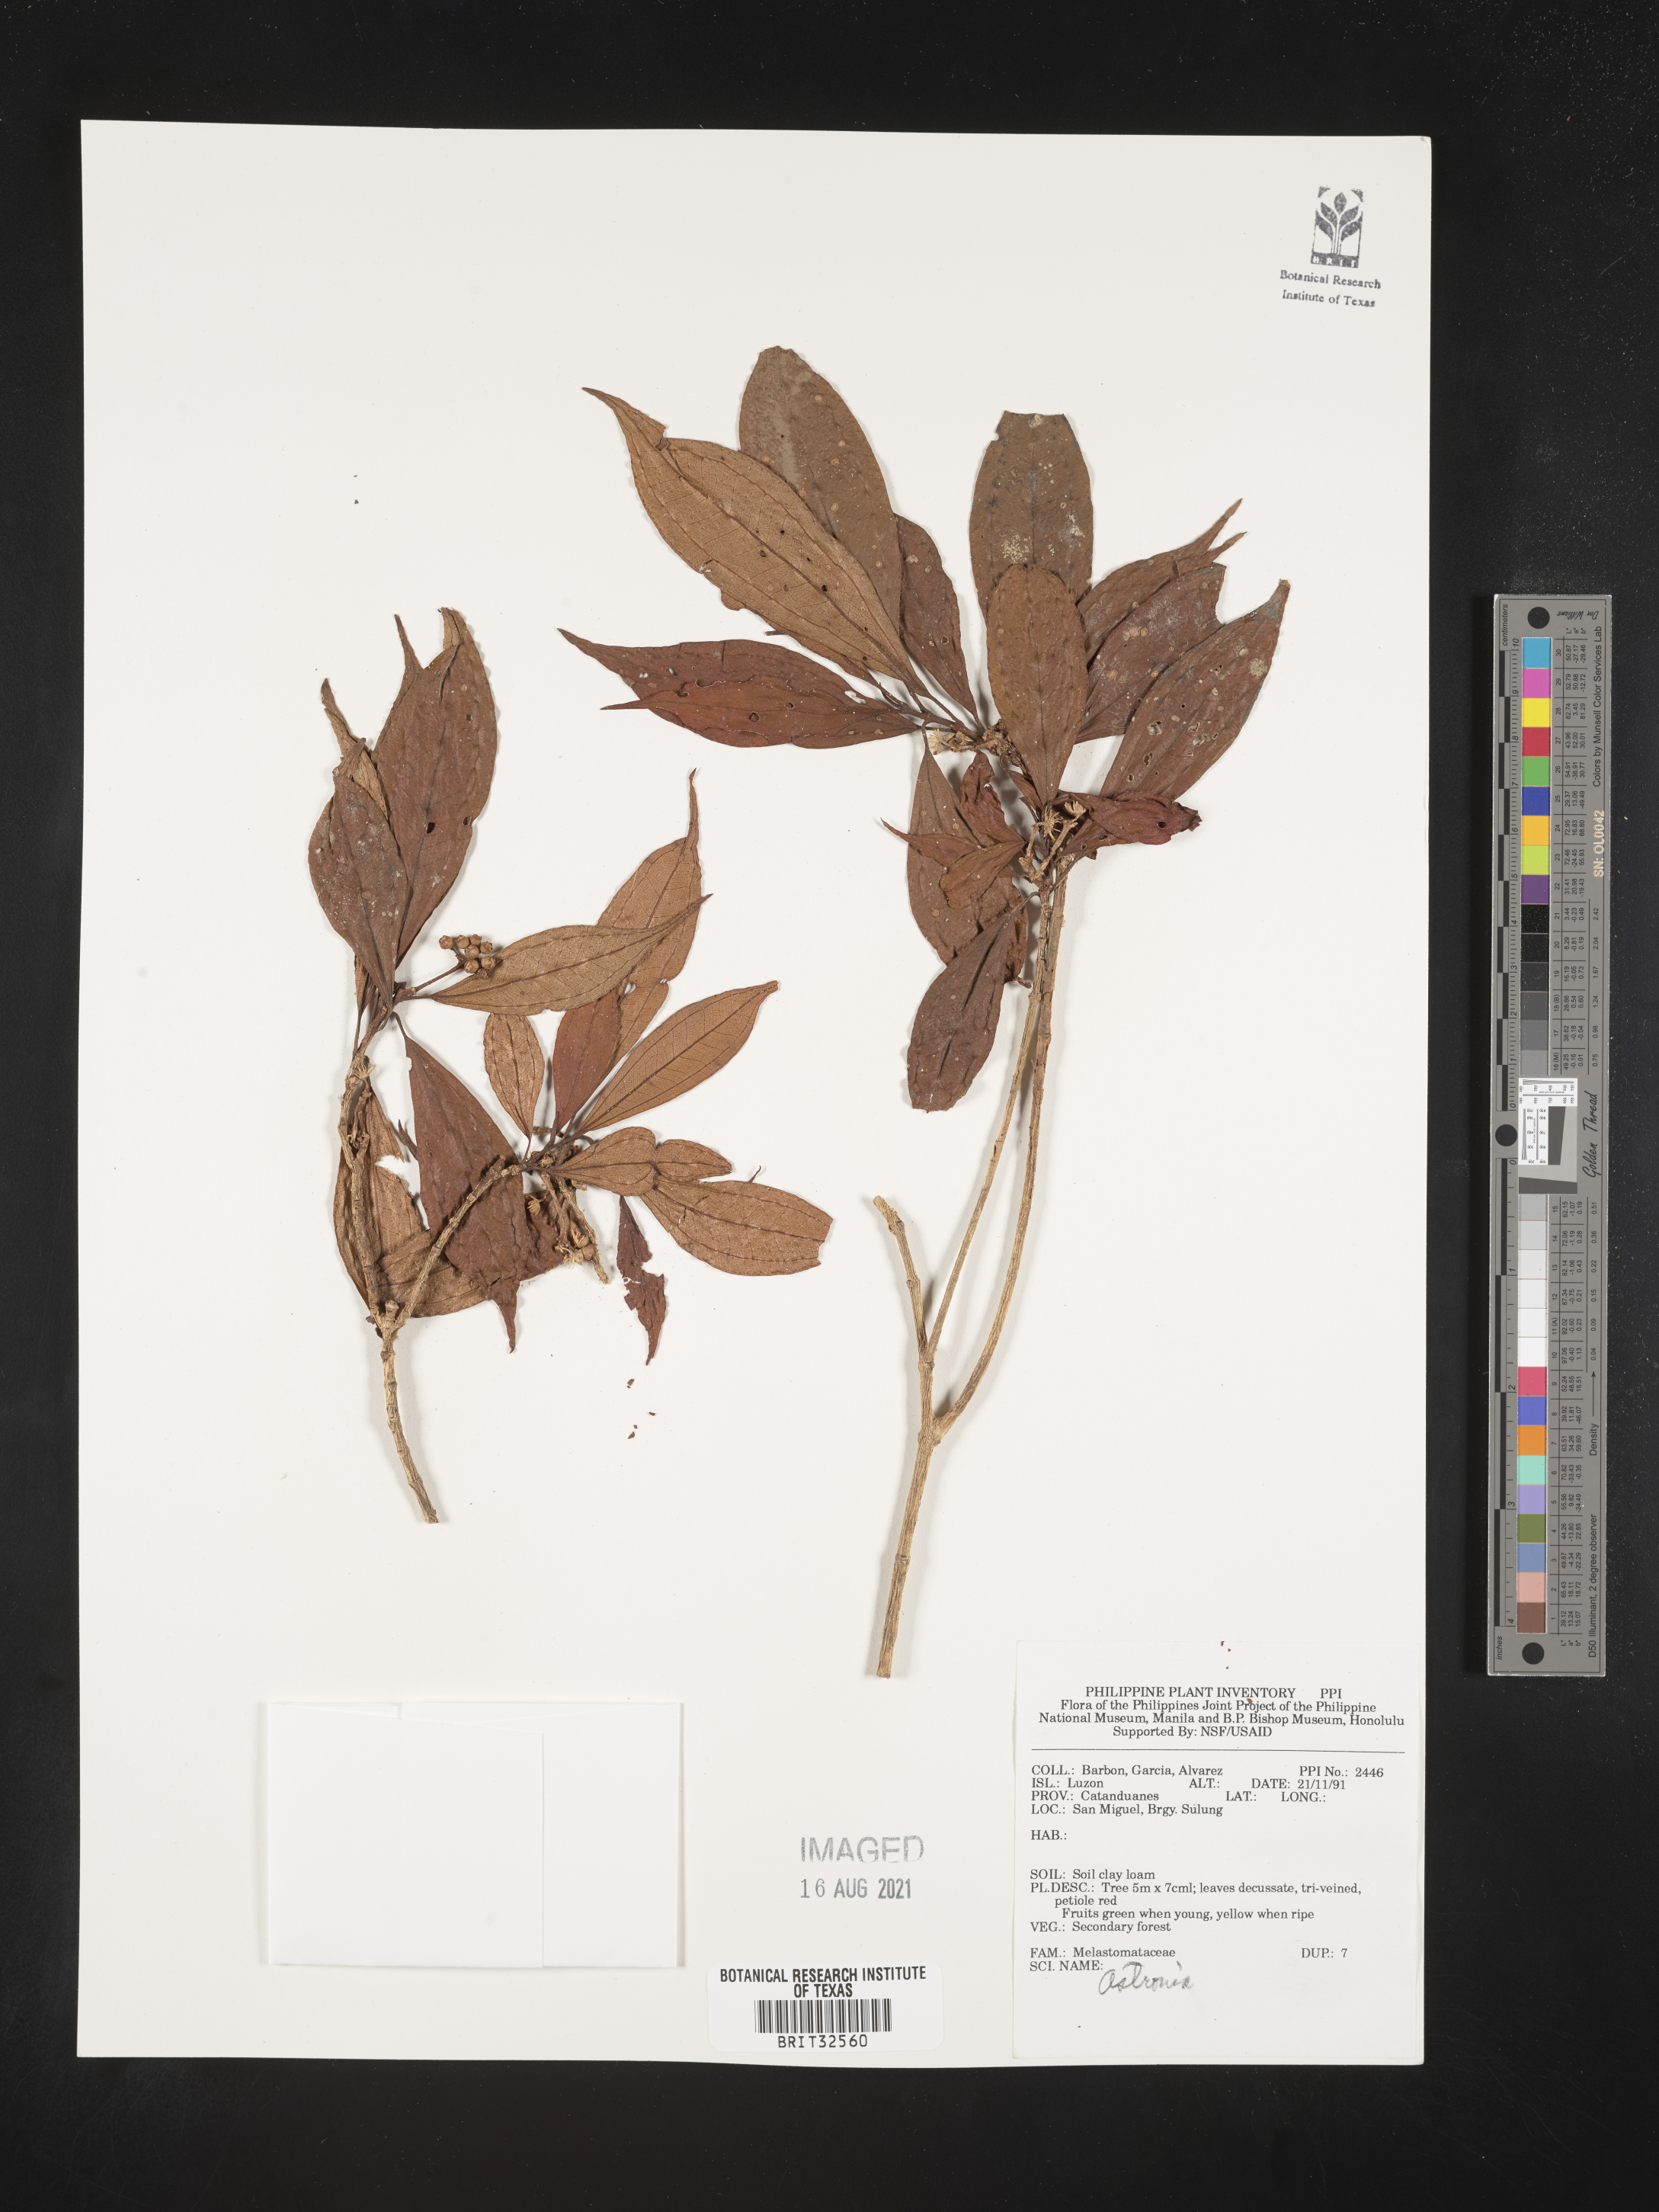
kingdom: Plantae
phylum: Tracheophyta
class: Magnoliopsida
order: Myrtales
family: Melastomataceae
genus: Astronia
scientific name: Astronia
